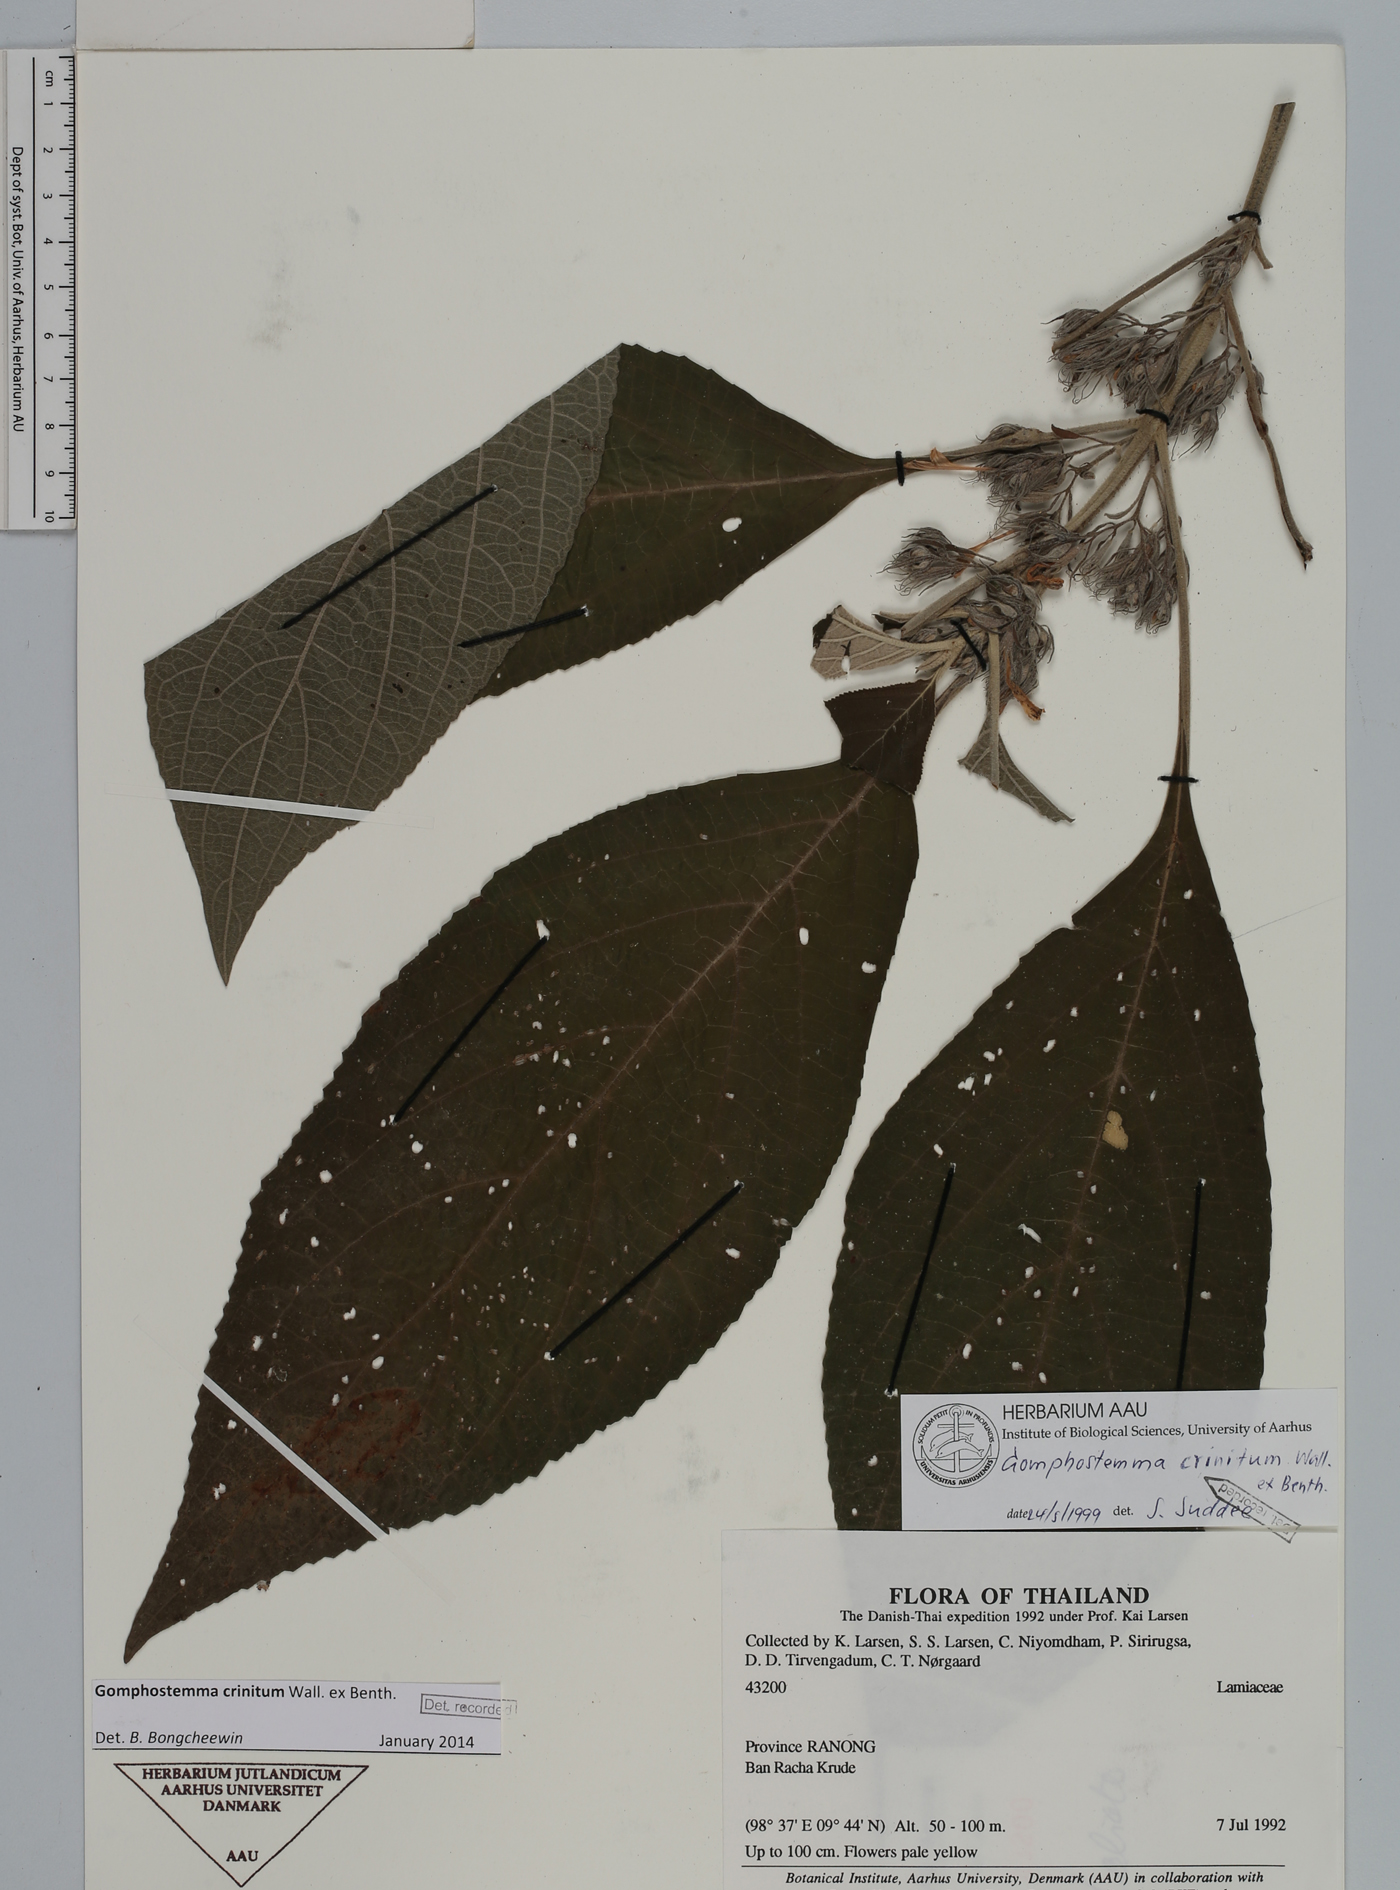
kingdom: Plantae
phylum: Tracheophyta
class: Magnoliopsida
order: Lamiales
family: Lamiaceae
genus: Gomphostemma
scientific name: Gomphostemma crinitum
